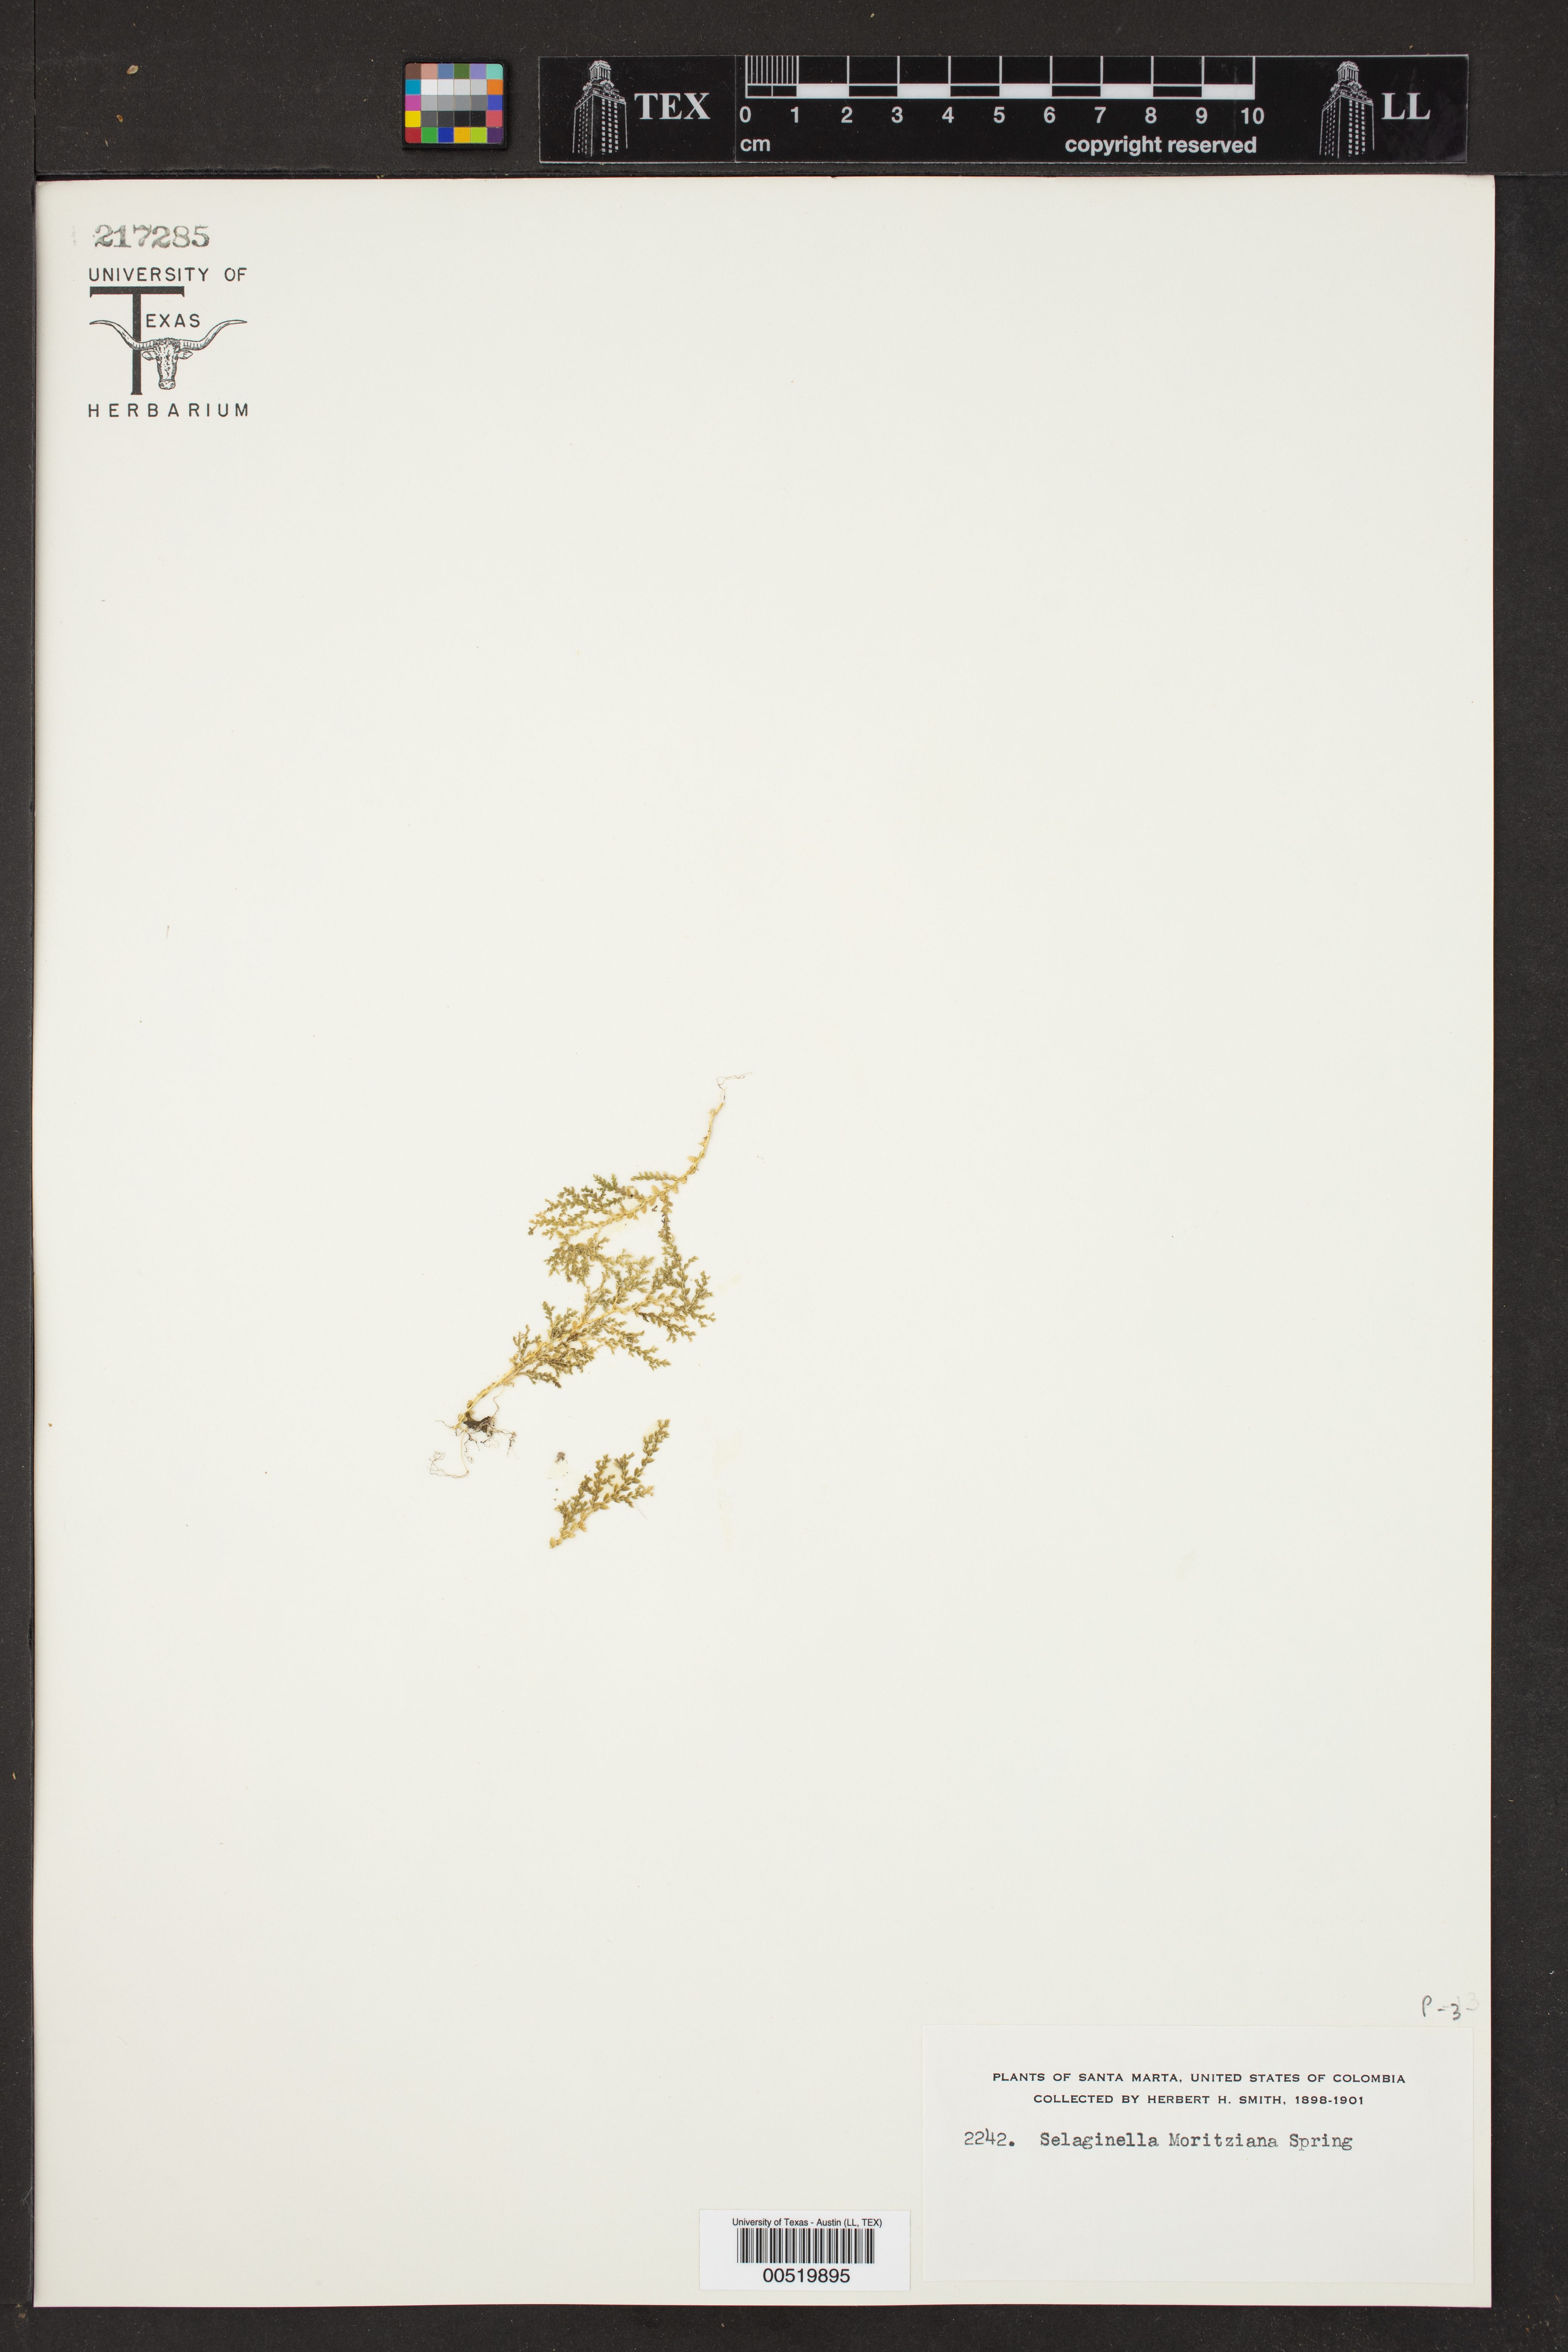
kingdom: Plantae
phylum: Tracheophyta
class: Lycopodiopsida
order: Selaginellales
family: Selaginellaceae
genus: Selaginella
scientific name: Selaginella moritziana
